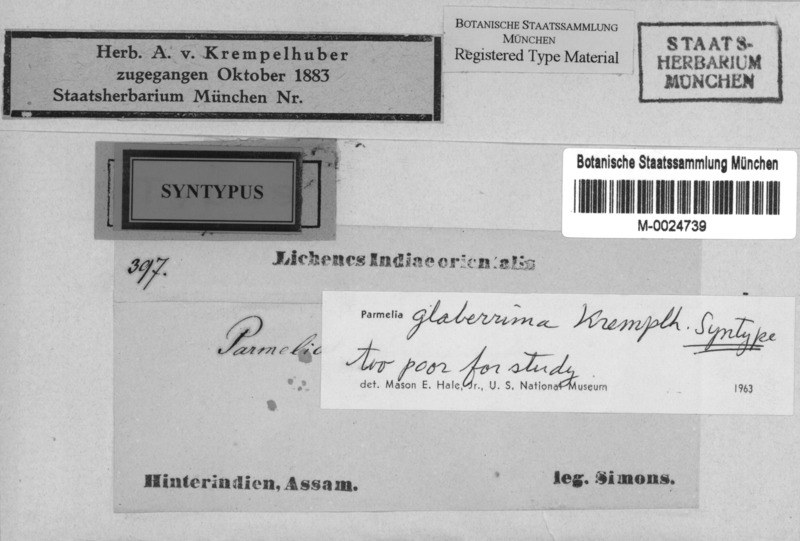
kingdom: Fungi
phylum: Ascomycota
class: Lecanoromycetes
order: Lecanorales
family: Parmeliaceae
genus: Parmotrema
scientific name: Parmotrema latissimum
